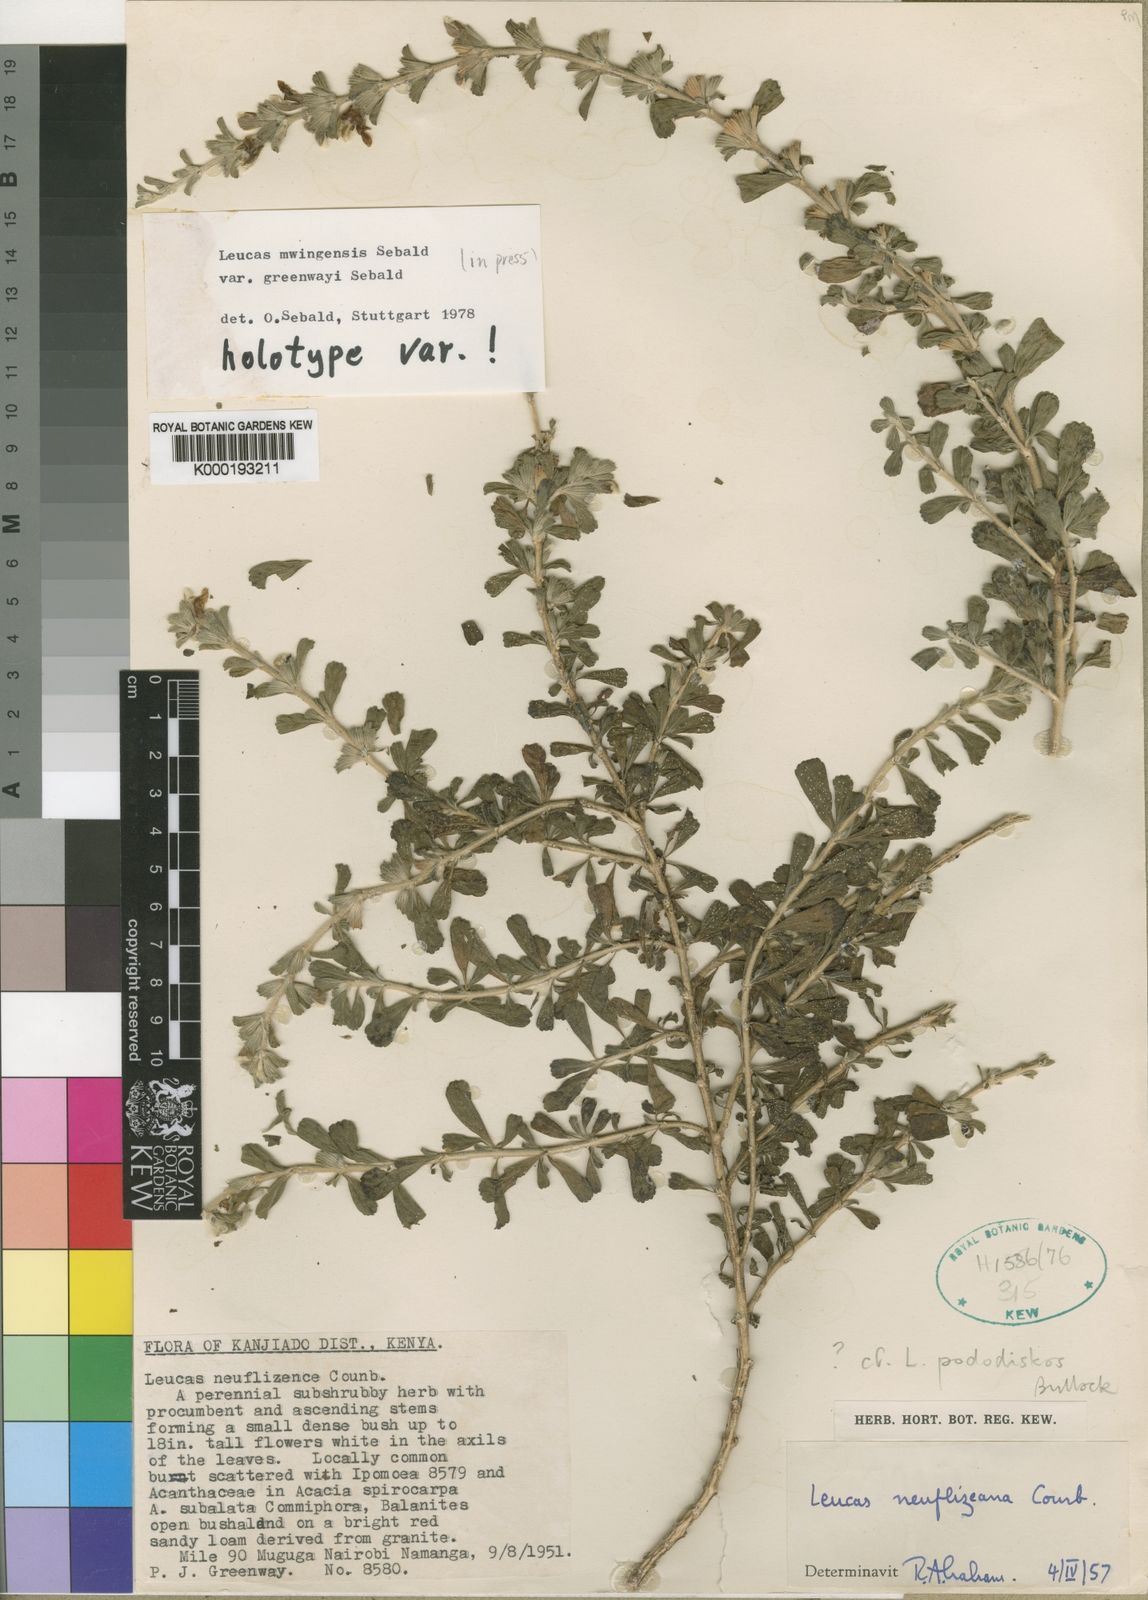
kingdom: Plantae
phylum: Tracheophyta
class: Magnoliopsida
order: Lamiales
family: Lamiaceae
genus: Leucas
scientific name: Leucas mwingensis
